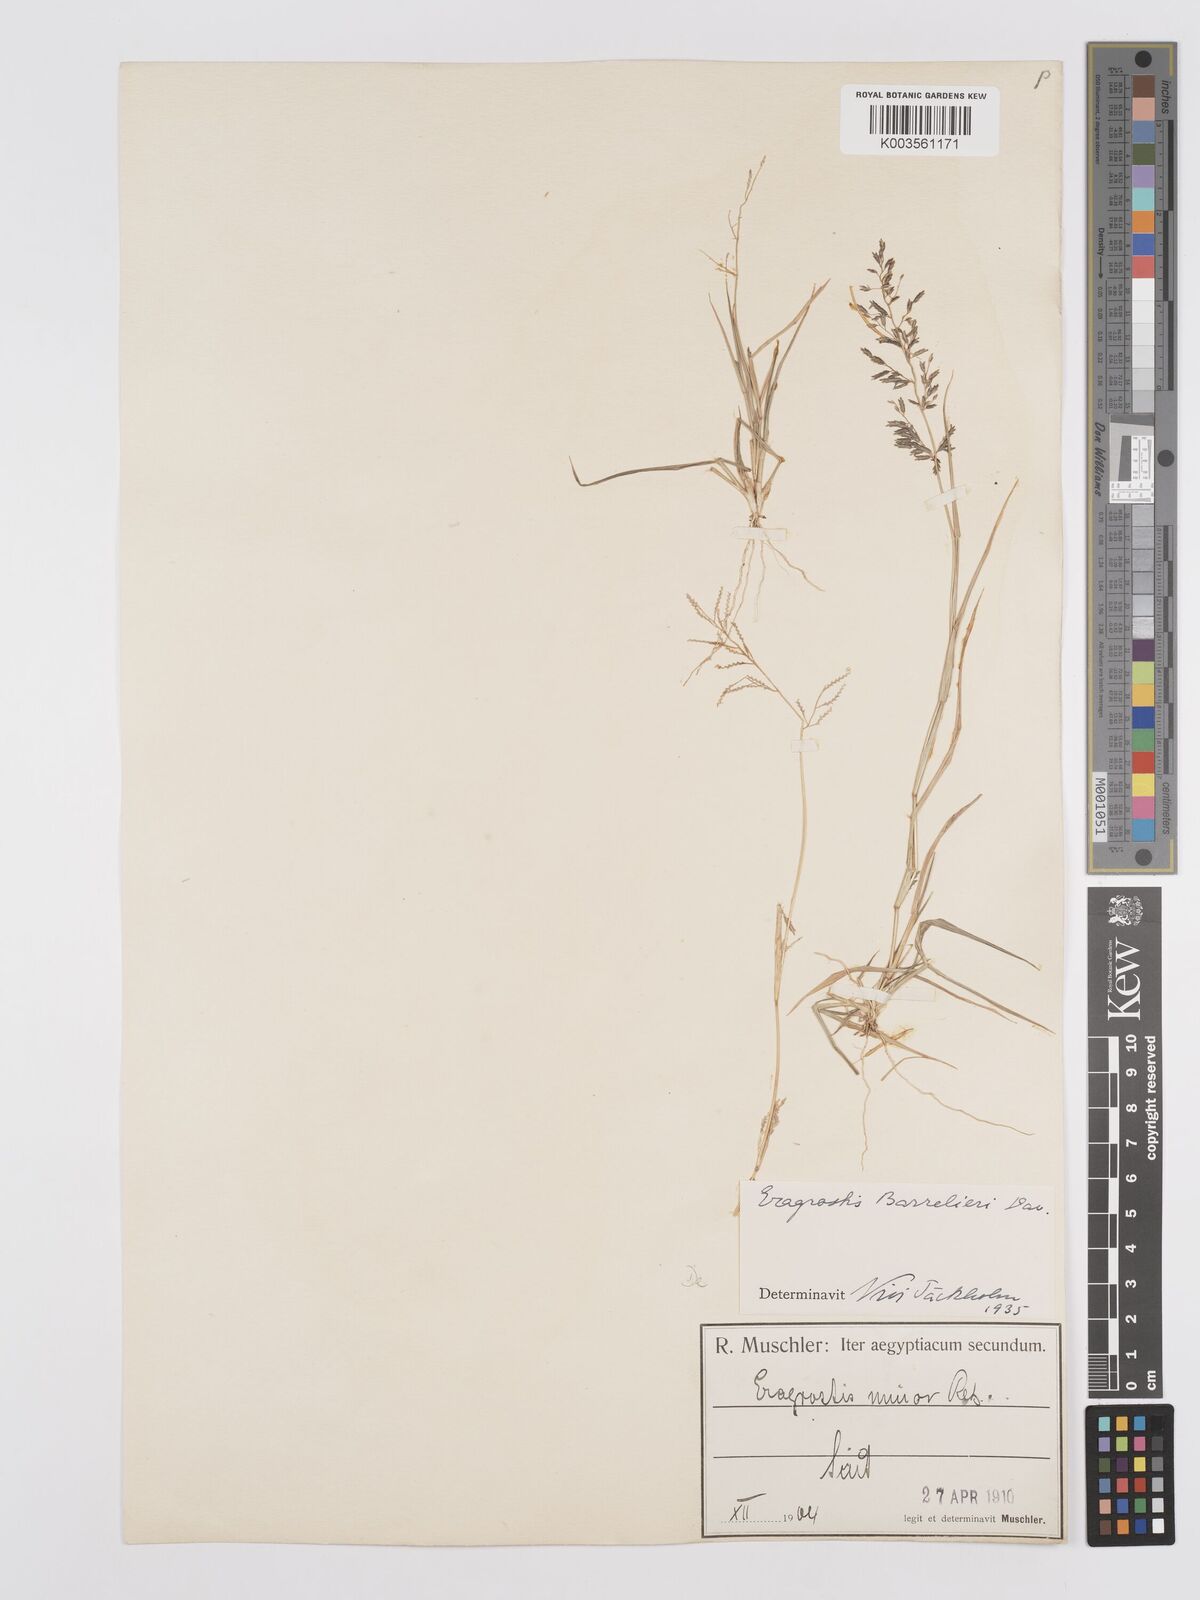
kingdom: Plantae
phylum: Tracheophyta
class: Liliopsida
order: Poales
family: Poaceae
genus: Eragrostis
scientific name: Eragrostis barrelieri
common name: Mediterranean lovegrass
